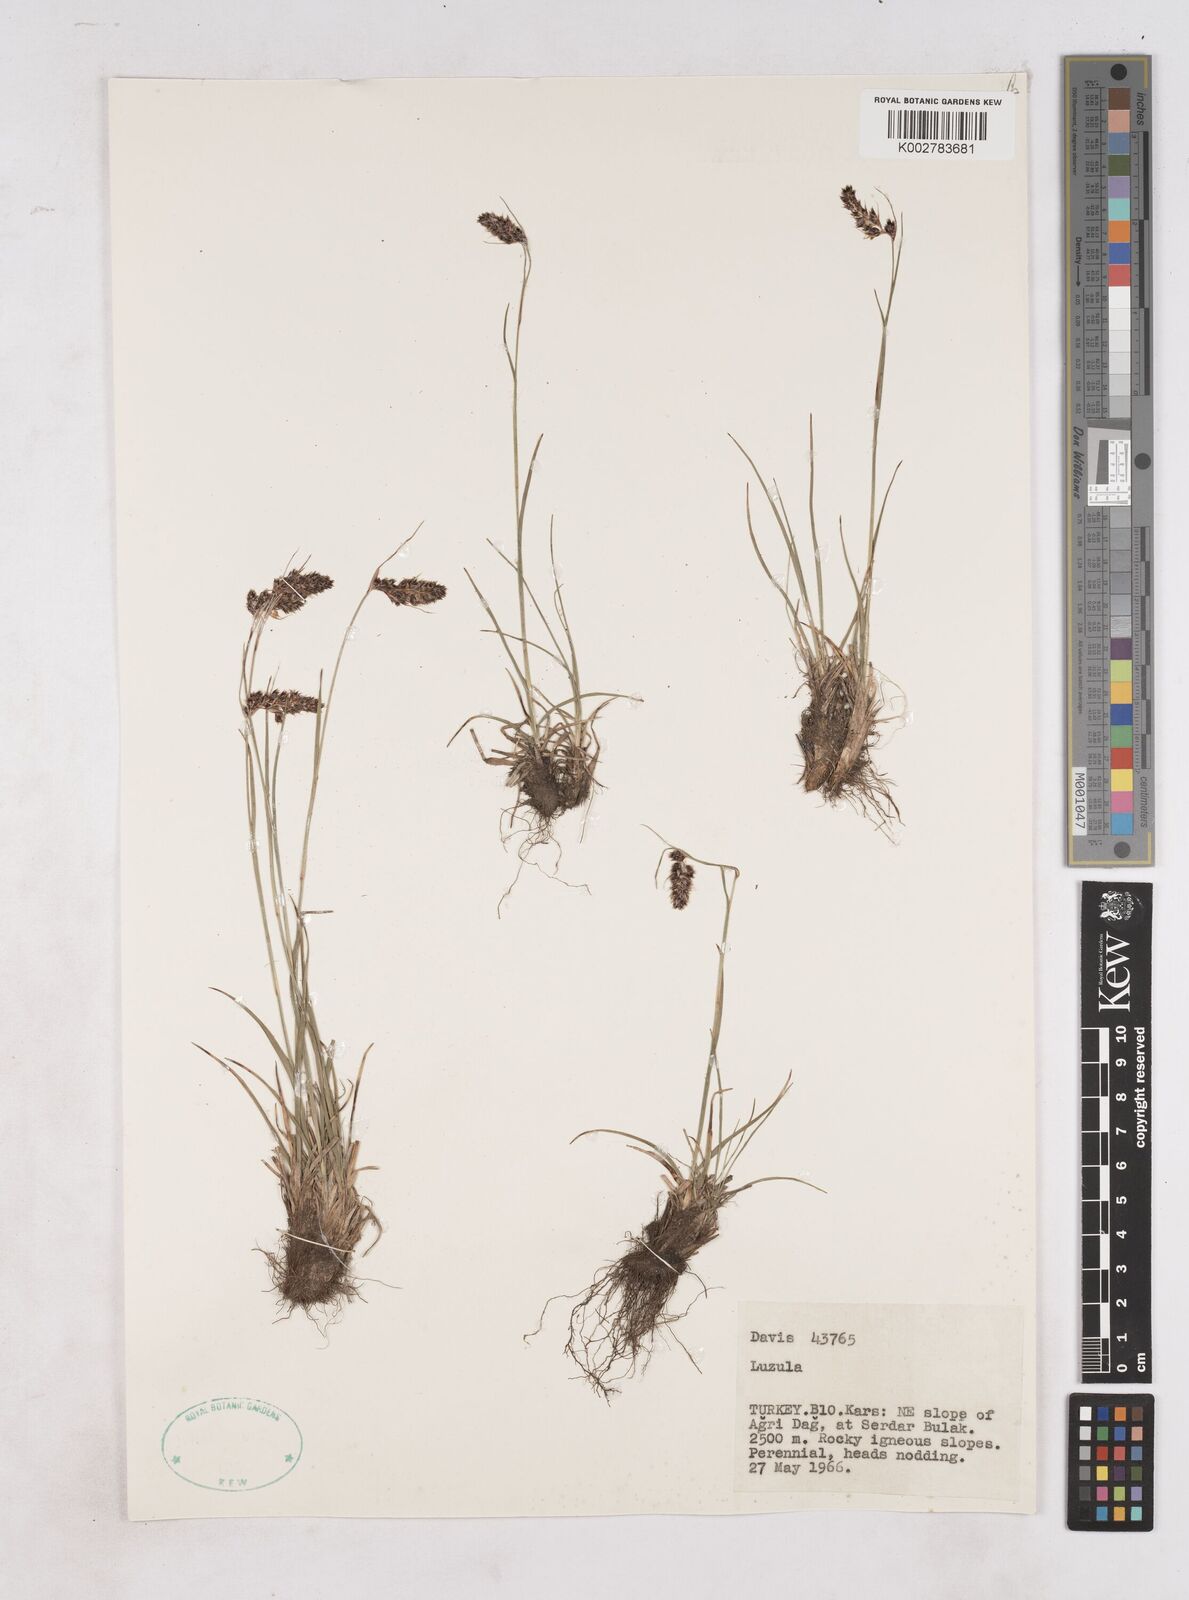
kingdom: Plantae
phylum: Tracheophyta
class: Liliopsida
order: Poales
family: Juncaceae
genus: Luzula
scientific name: Luzula
